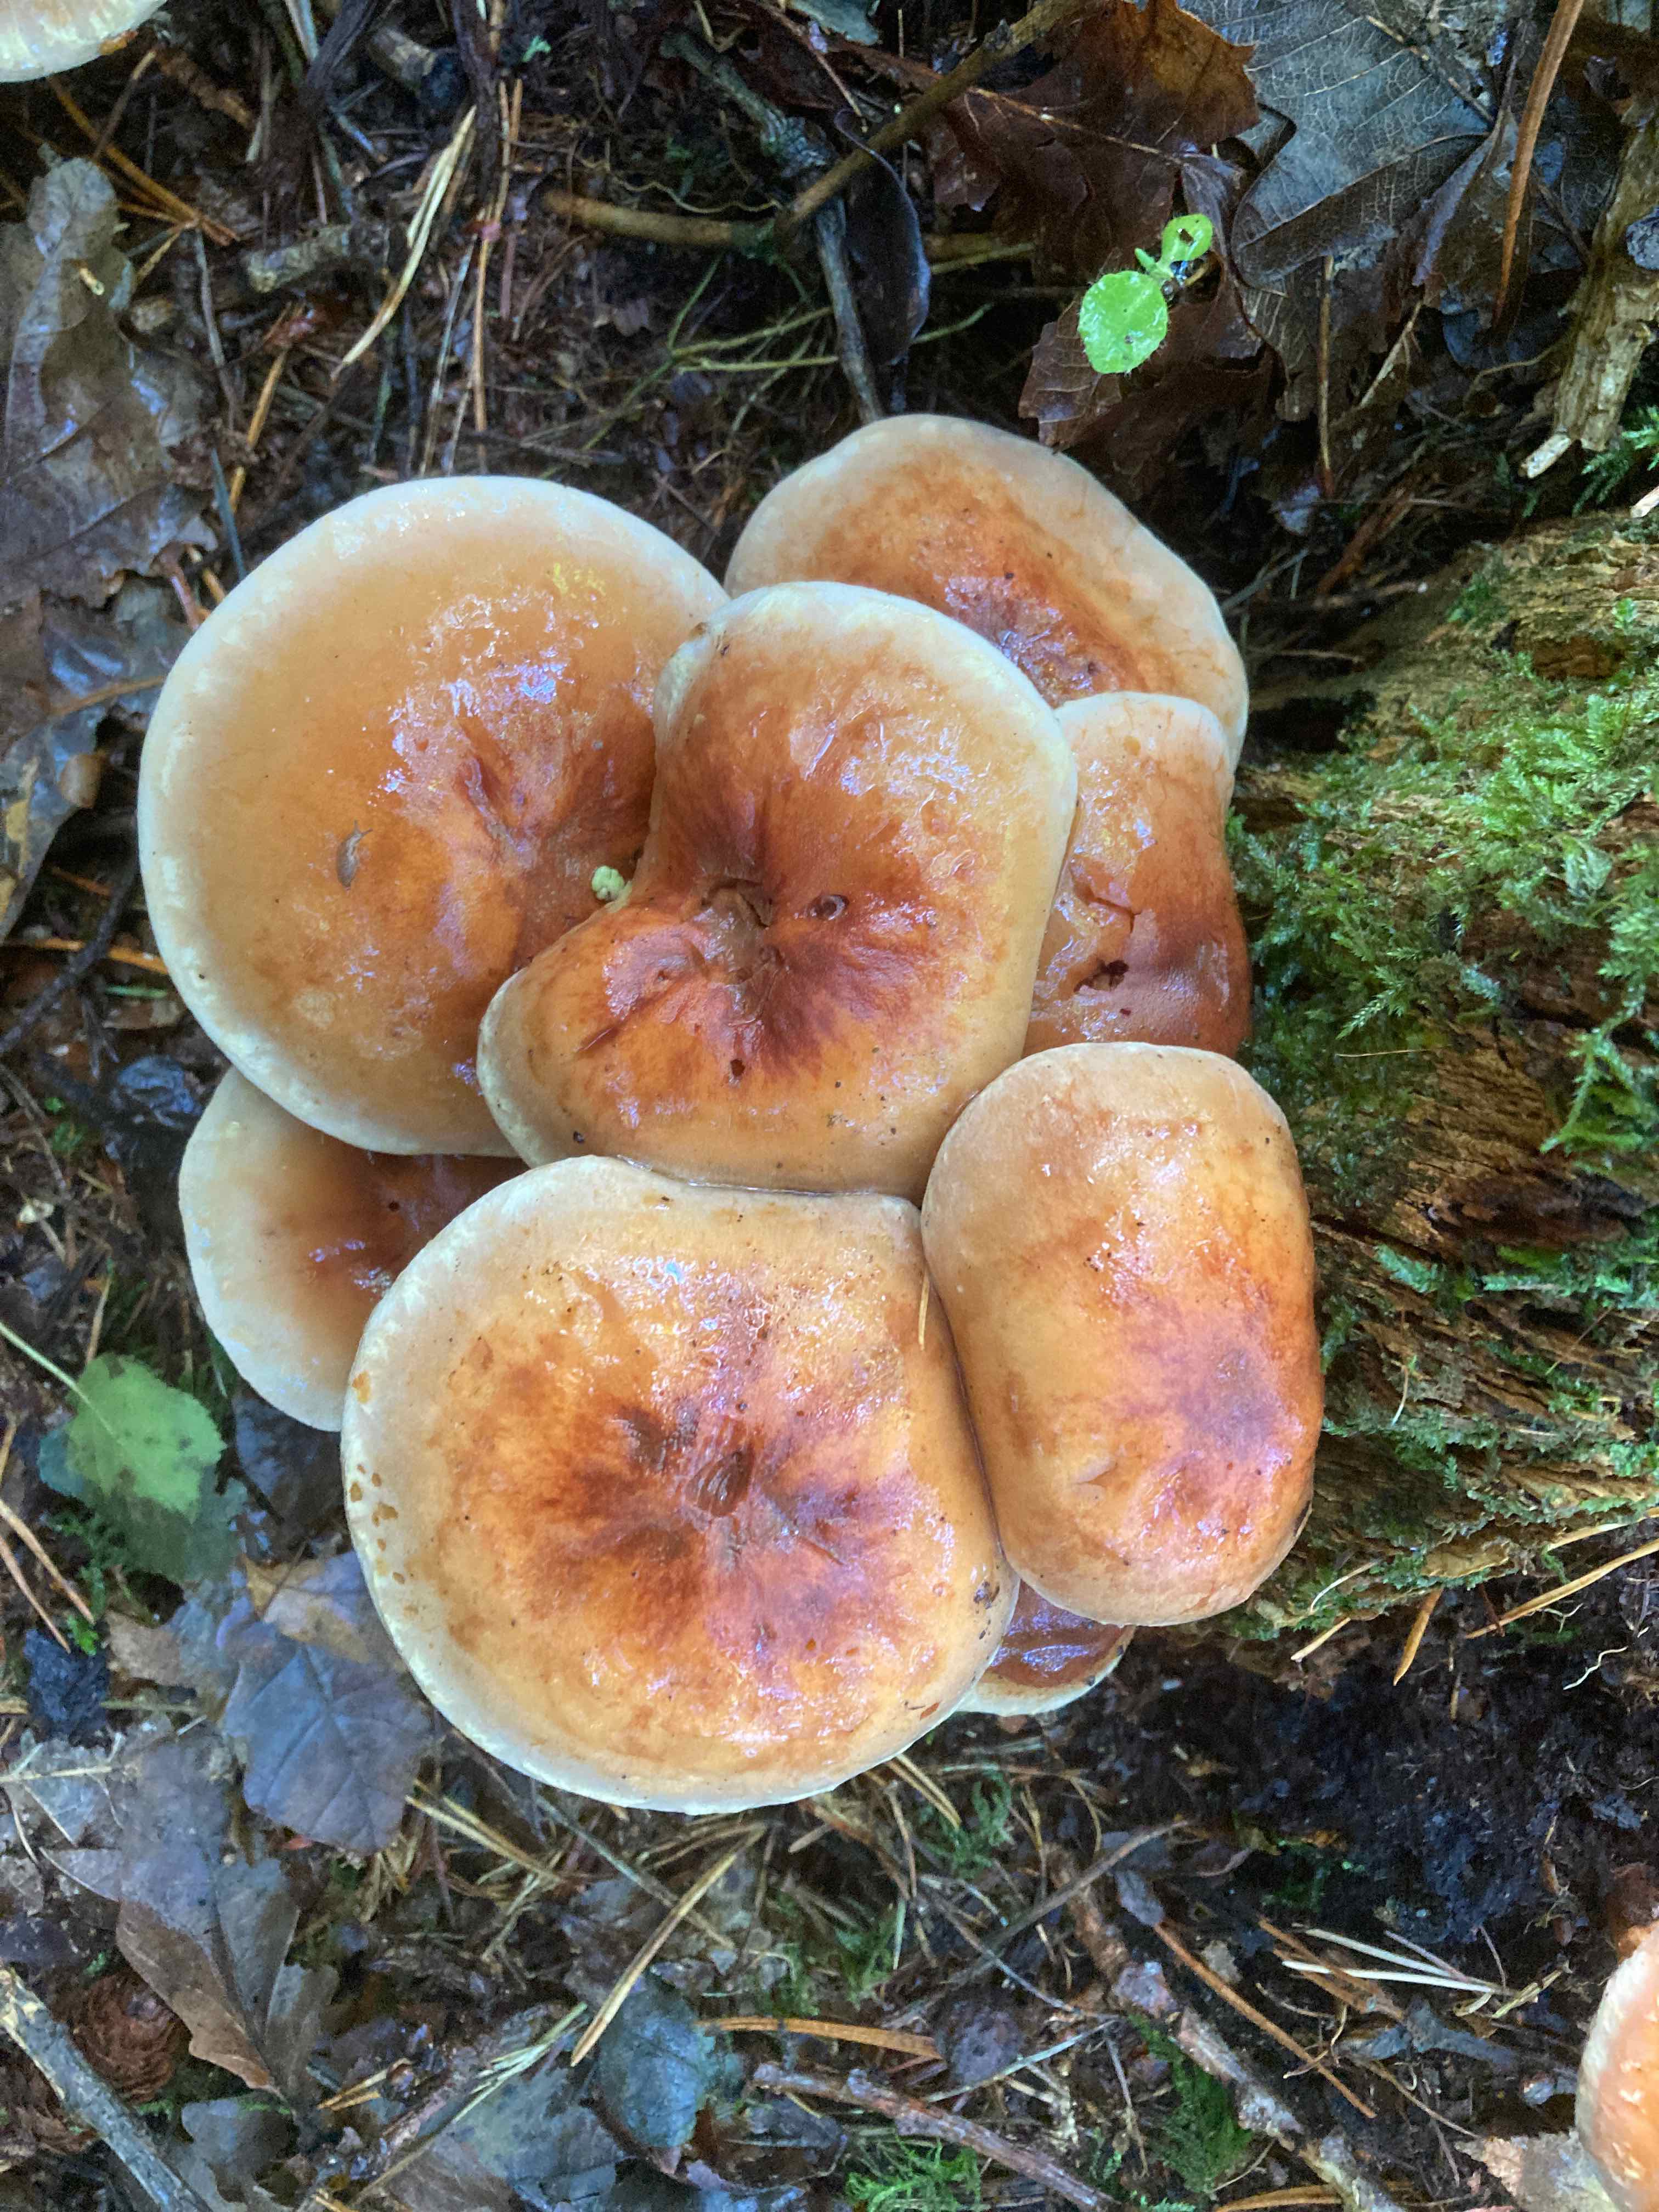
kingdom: Fungi
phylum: Basidiomycota
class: Agaricomycetes
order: Agaricales
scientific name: Agaricales
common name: champignonordenen
